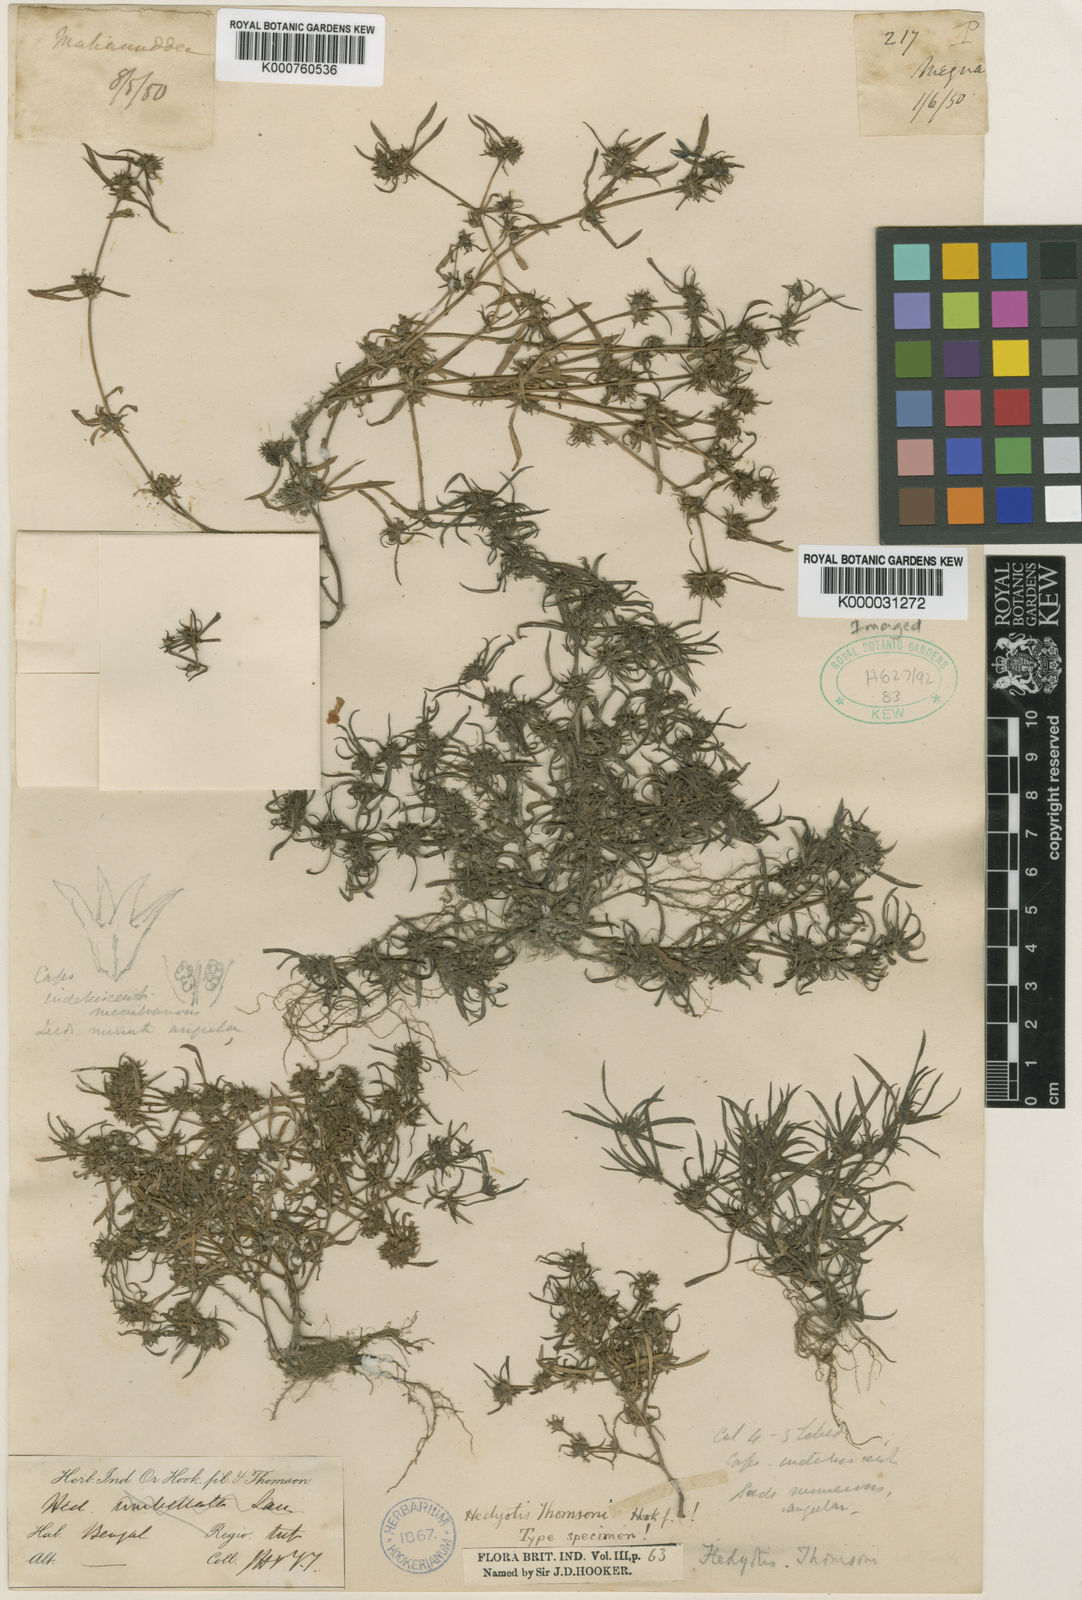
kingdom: Plantae
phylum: Tracheophyta
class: Magnoliopsida
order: Gentianales
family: Rubiaceae
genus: Oldenlandia
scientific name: Oldenlandia thomsonii
